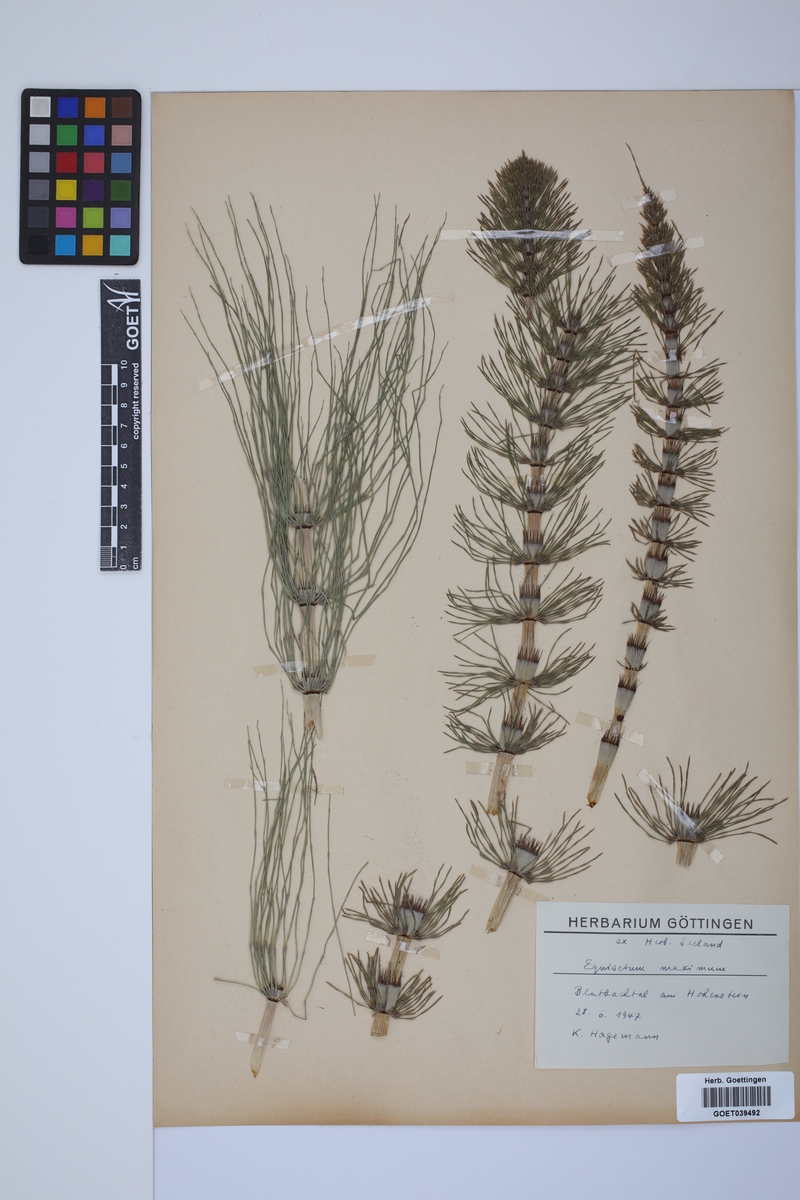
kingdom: Plantae
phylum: Tracheophyta
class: Polypodiopsida
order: Equisetales
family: Equisetaceae
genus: Equisetum
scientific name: Equisetum telmateia
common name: Great horsetail
